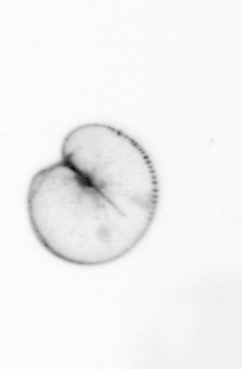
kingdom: Chromista
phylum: Myzozoa
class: Dinophyceae
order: Noctilucales
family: Noctilucaceae
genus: Noctiluca
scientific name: Noctiluca scintillans
